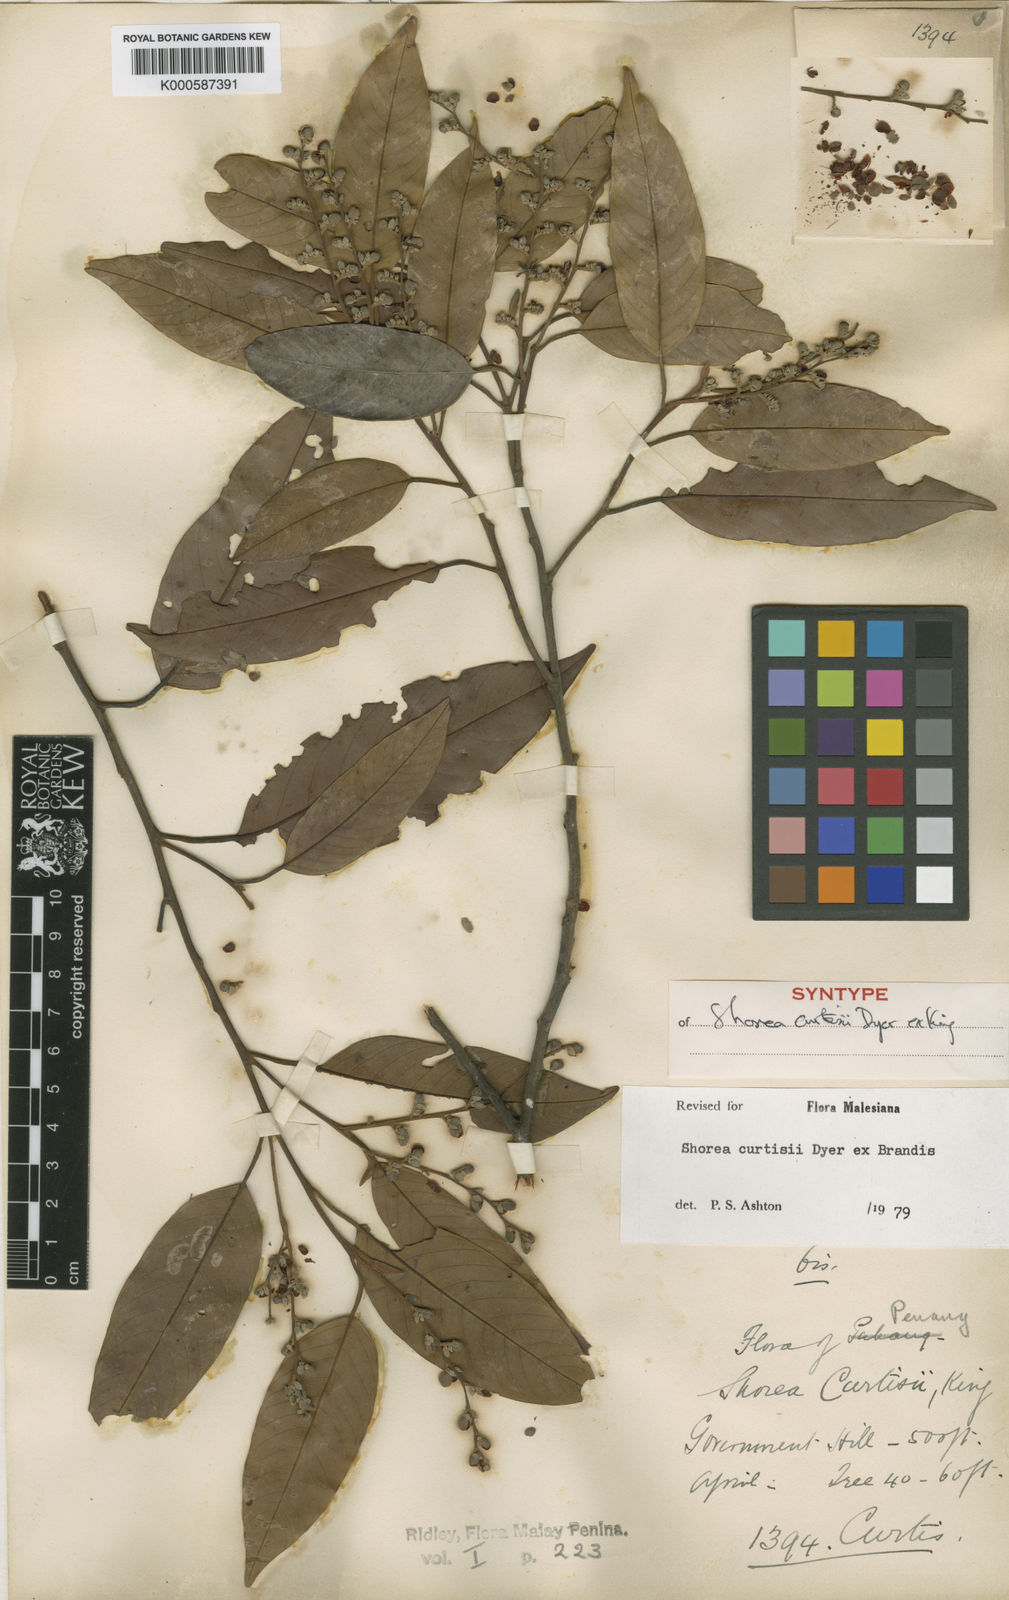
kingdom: Plantae
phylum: Tracheophyta
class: Magnoliopsida
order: Malvales
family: Dipterocarpaceae
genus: Shorea
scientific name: Shorea curtisii
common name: Dark red meranti
